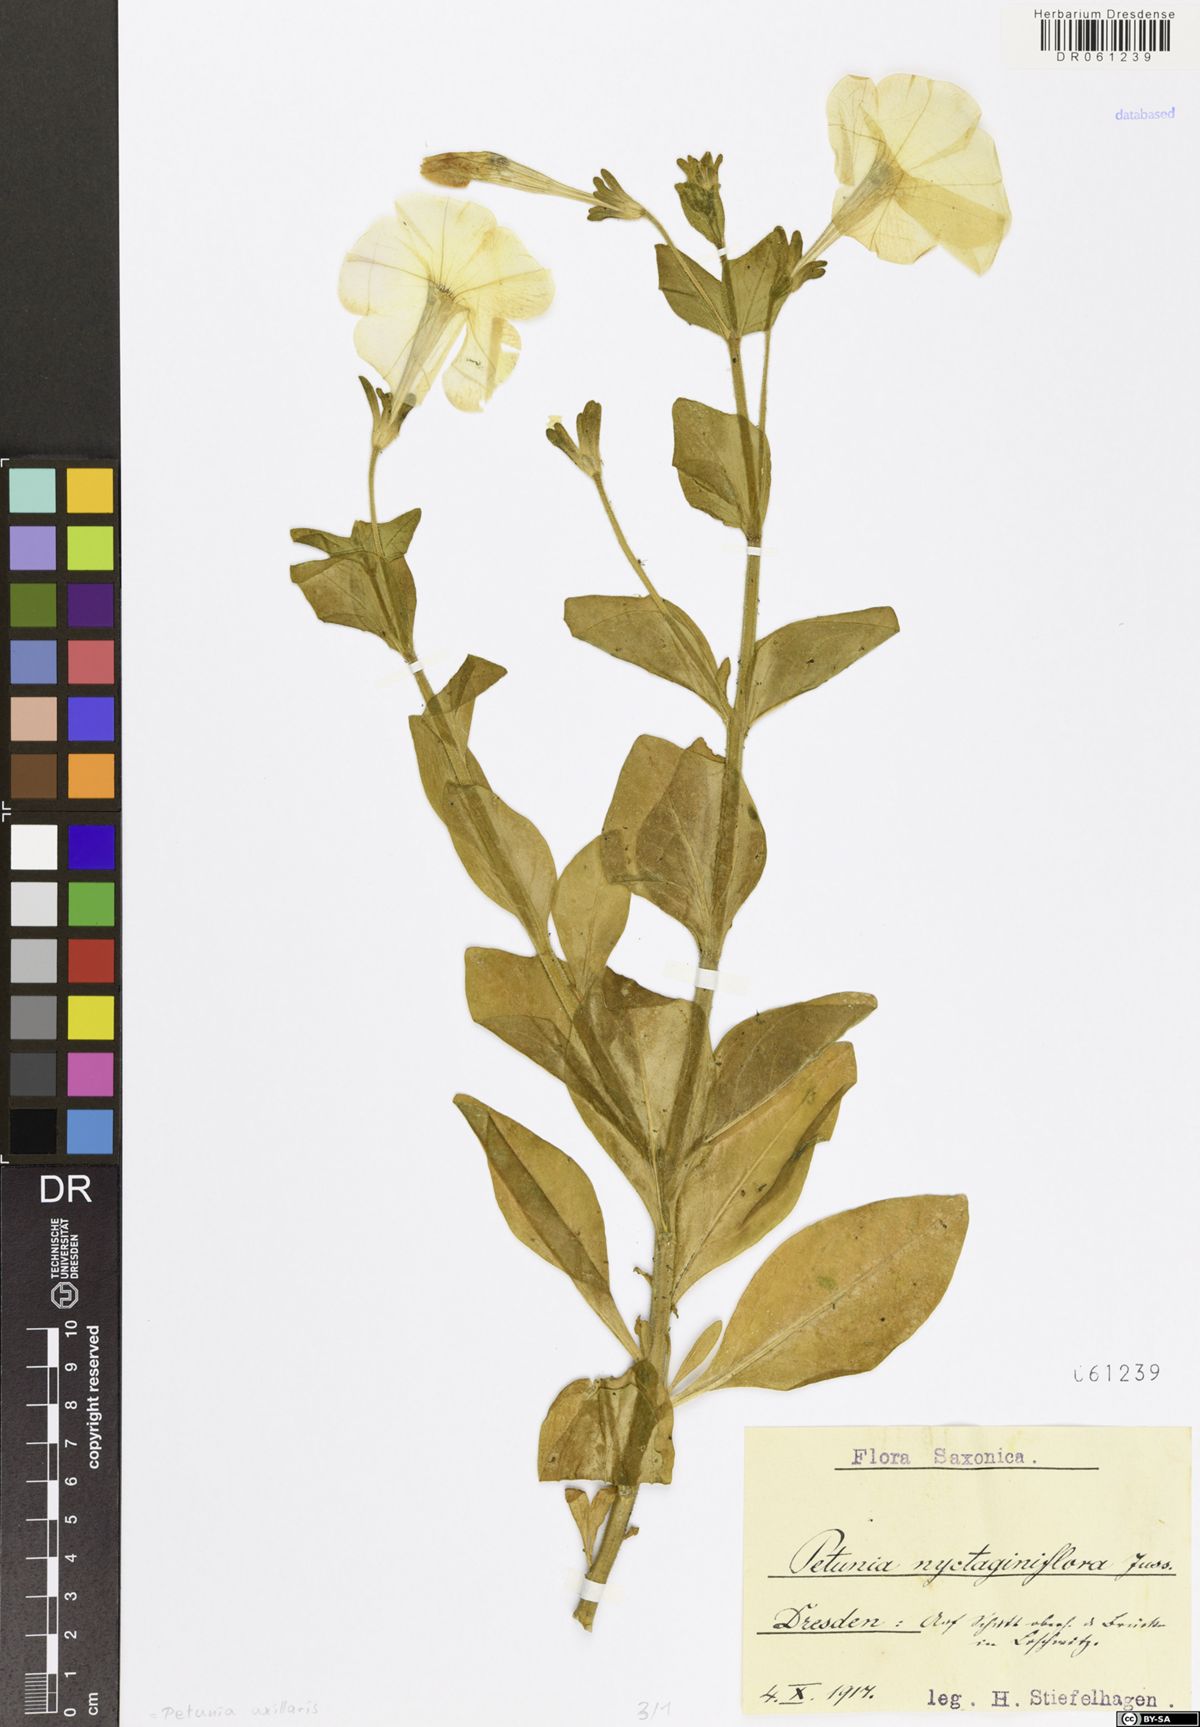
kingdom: Plantae
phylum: Tracheophyta
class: Magnoliopsida
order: Solanales
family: Solanaceae
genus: Petunia
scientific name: Petunia axillaris
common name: Large white petunia
